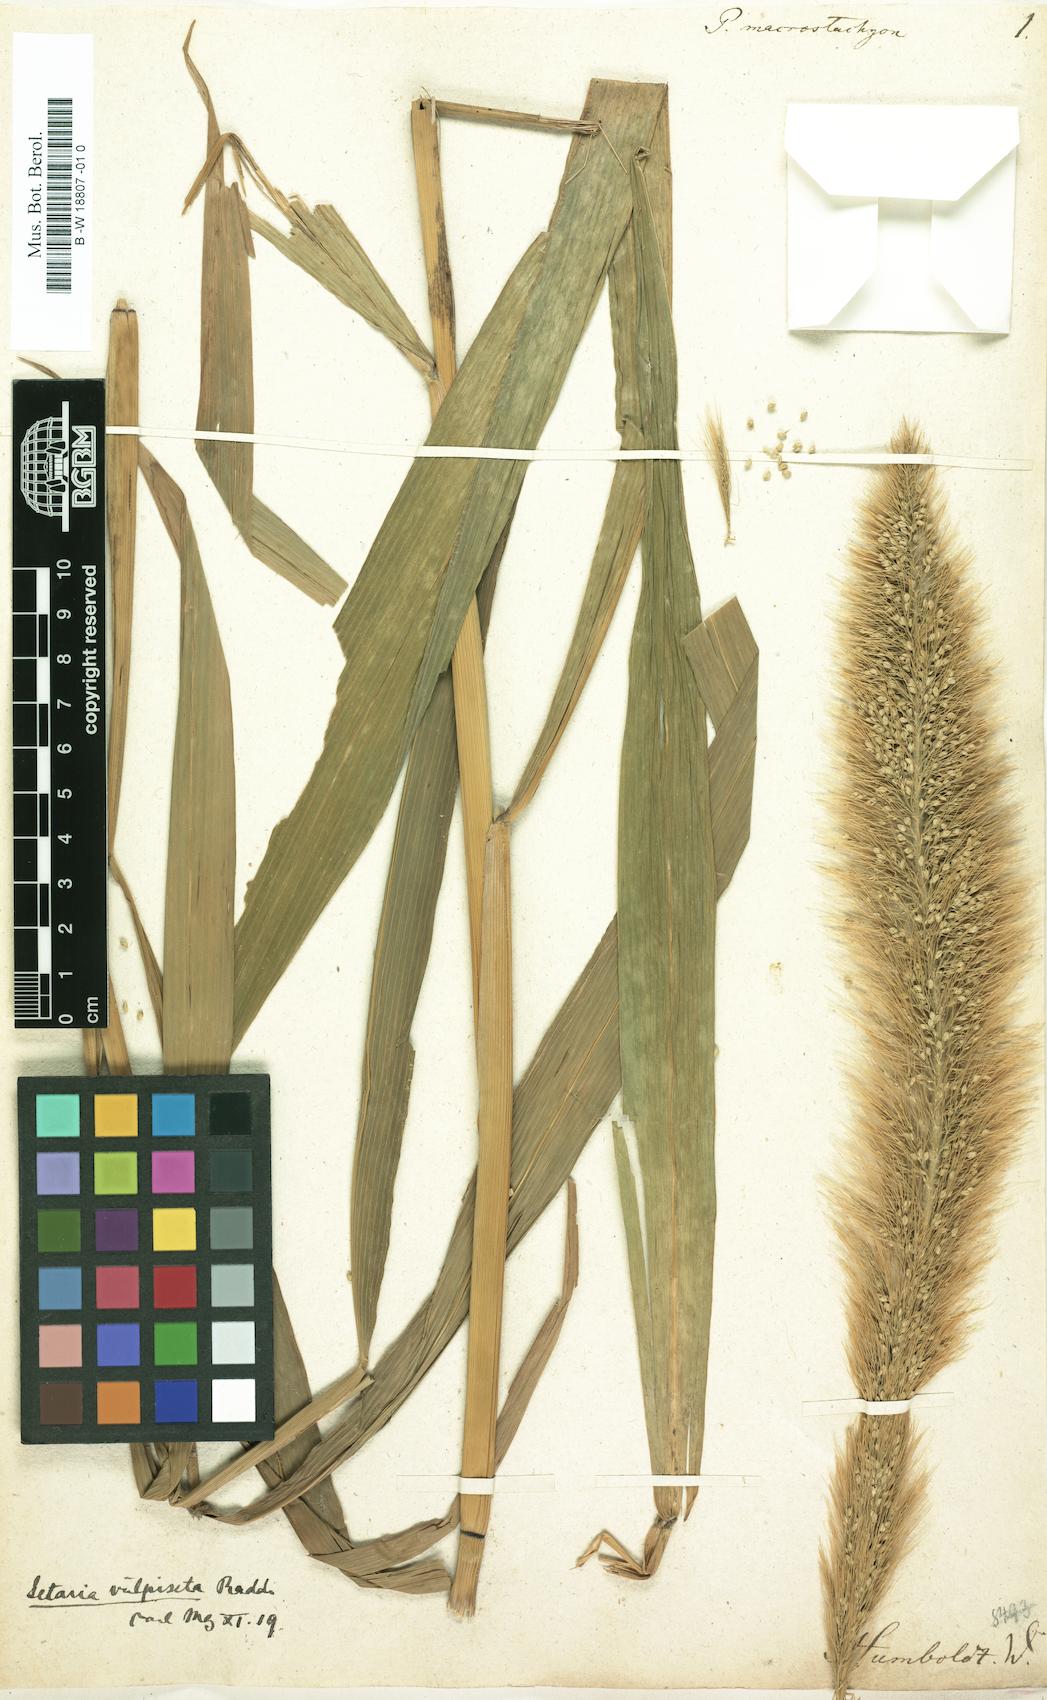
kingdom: Plantae
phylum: Tracheophyta
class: Liliopsida
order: Poales
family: Poaceae
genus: Setaria
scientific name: Setaria macrostachya
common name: Plains bristle grass
